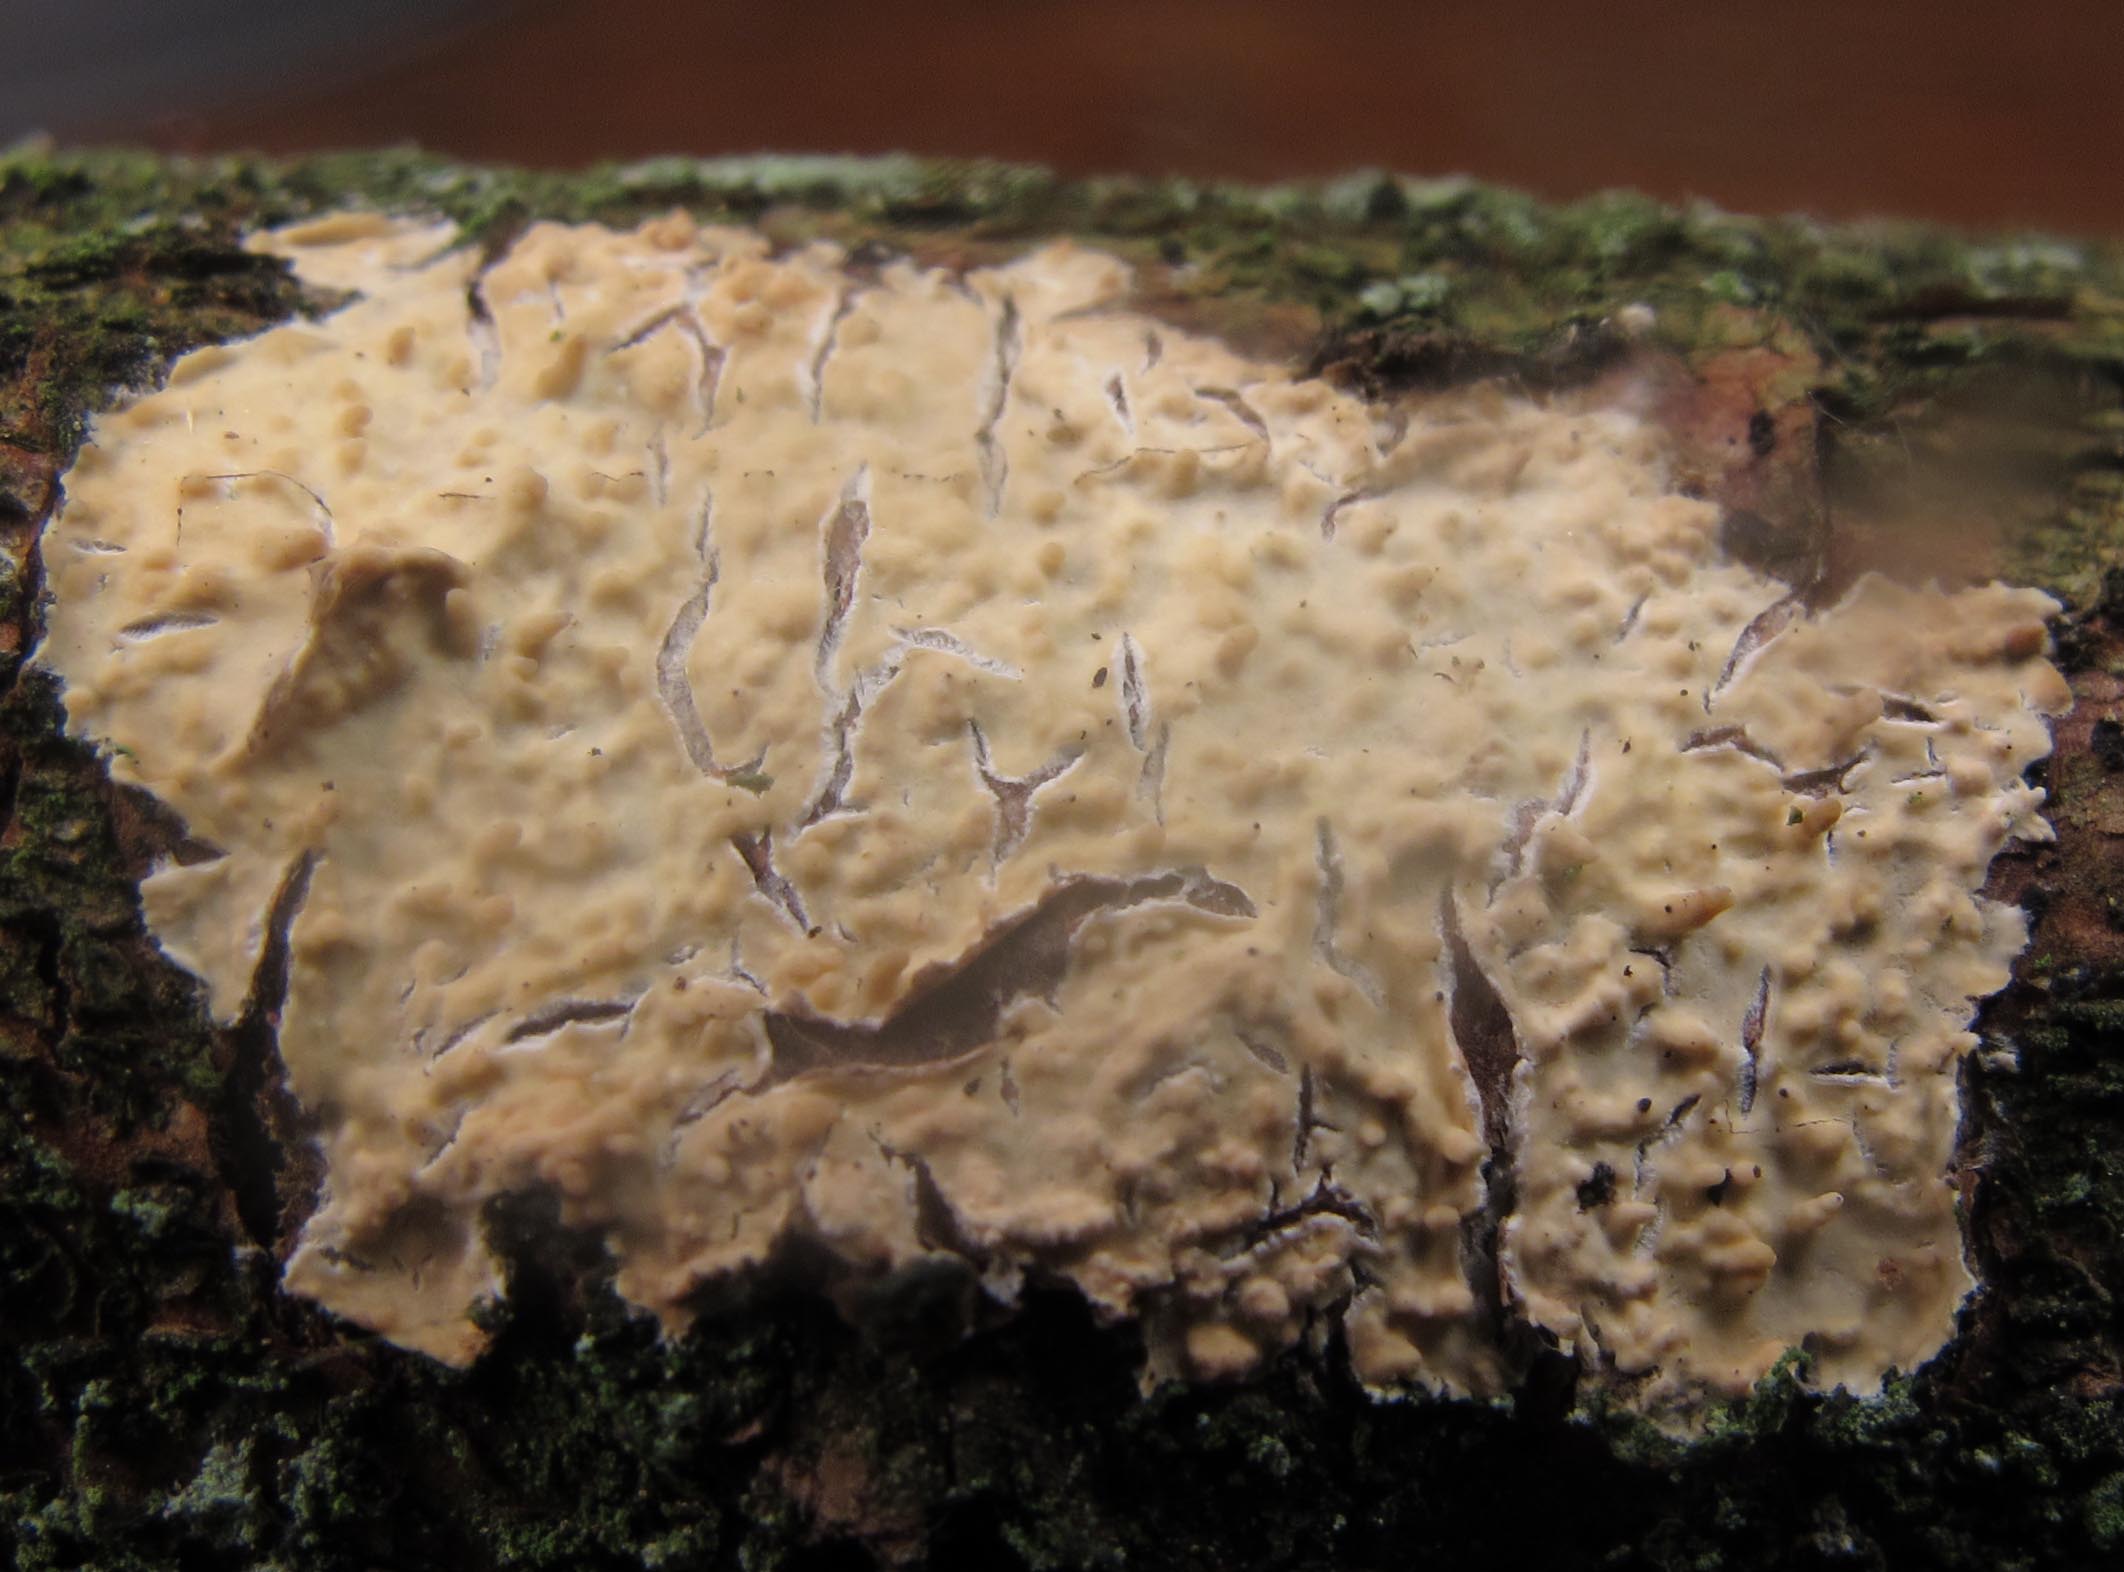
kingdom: Fungi
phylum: Basidiomycota
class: Agaricomycetes
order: Hymenochaetales
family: Schizoporaceae
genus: Xylodon
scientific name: Xylodon radula
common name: grovtandet kalkskind
